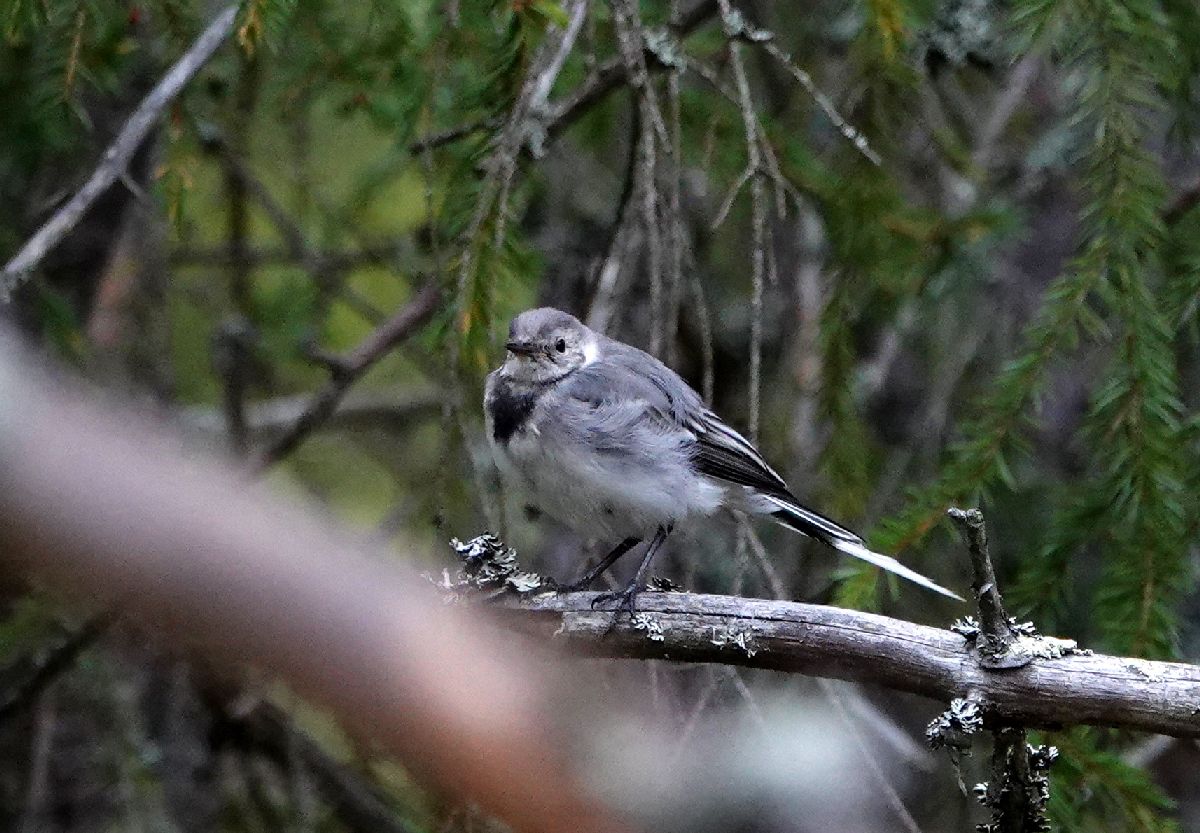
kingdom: Animalia
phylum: Chordata
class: Aves
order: Passeriformes
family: Motacillidae
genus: Motacilla
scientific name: Motacilla alba
